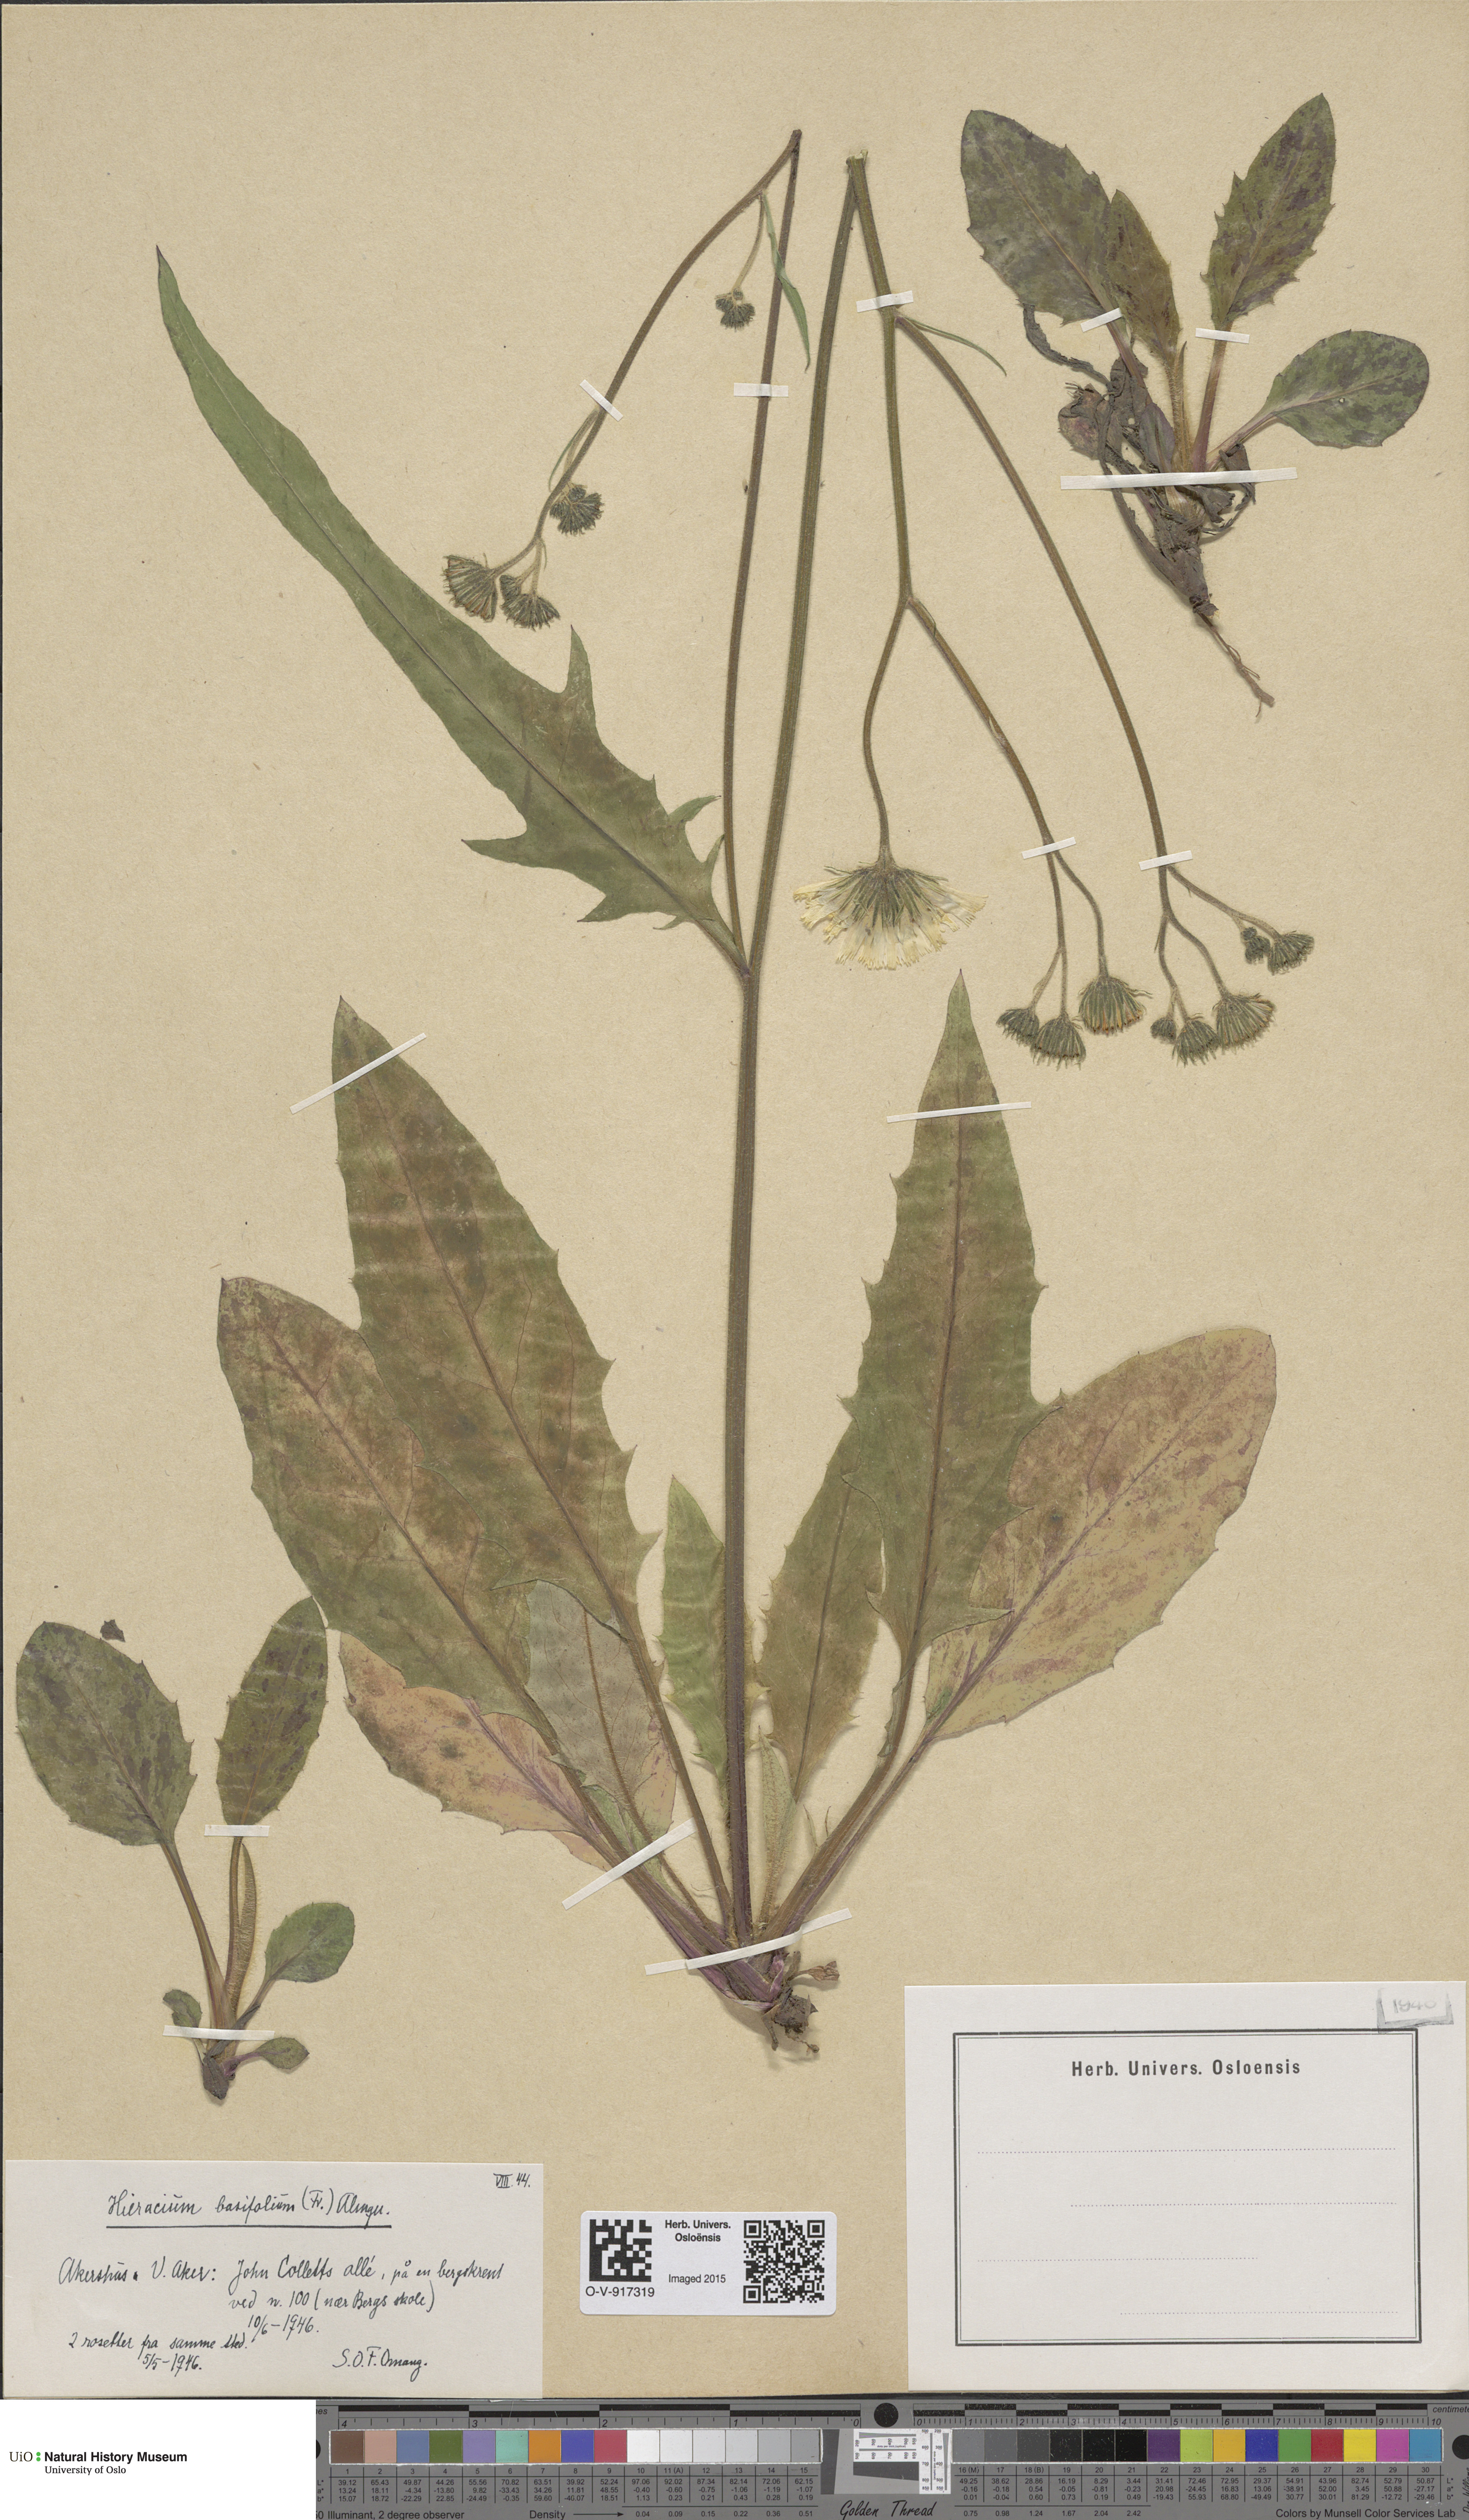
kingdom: Plantae
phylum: Tracheophyta
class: Magnoliopsida
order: Asterales
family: Asteraceae
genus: Hieracium
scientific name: Hieracium basifolium
